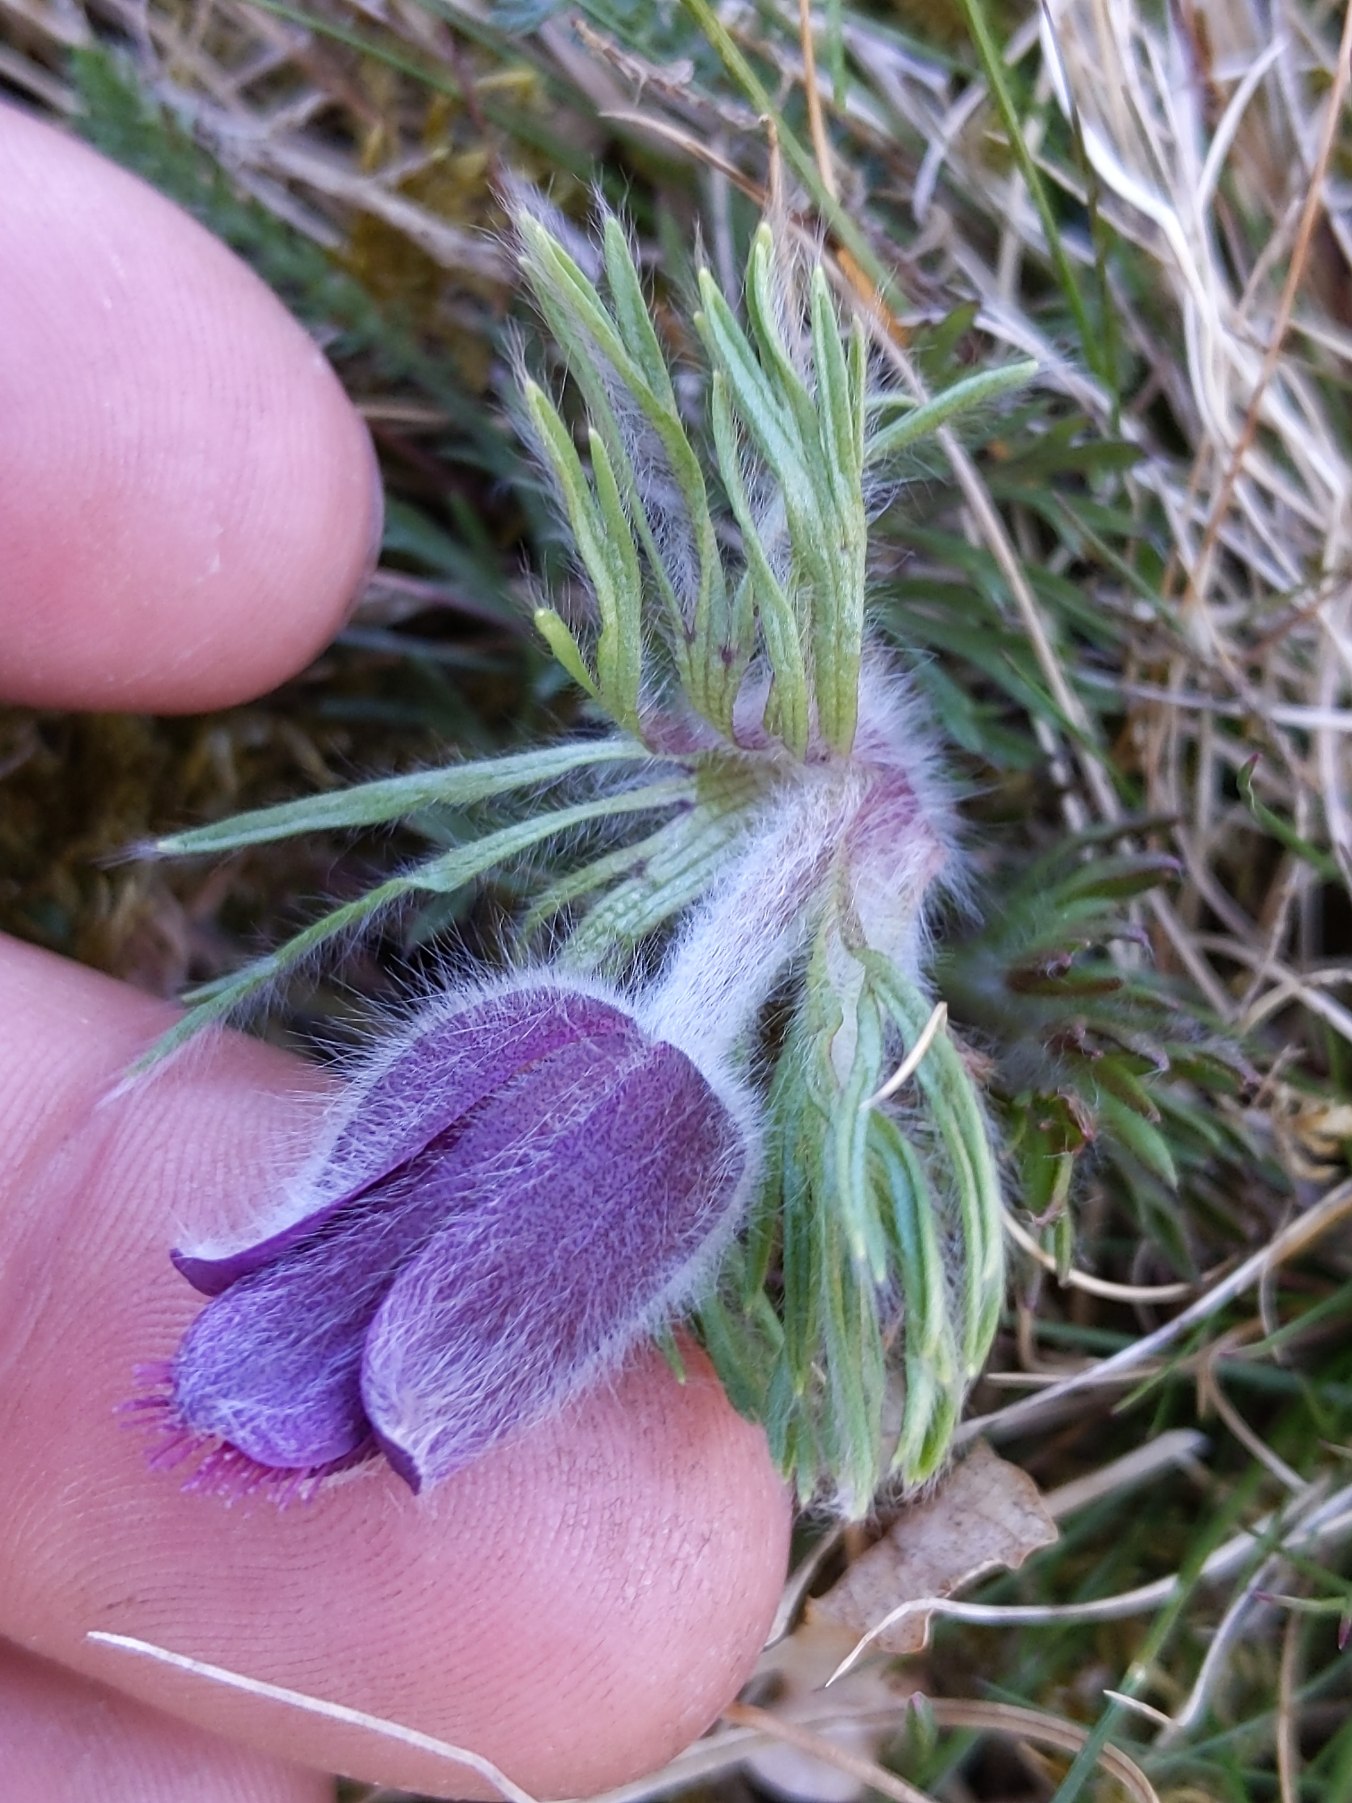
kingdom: Plantae
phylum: Tracheophyta
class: Magnoliopsida
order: Ranunculales
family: Ranunculaceae
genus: Pulsatilla
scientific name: Pulsatilla pratensis
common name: Nikkende kobjælde
